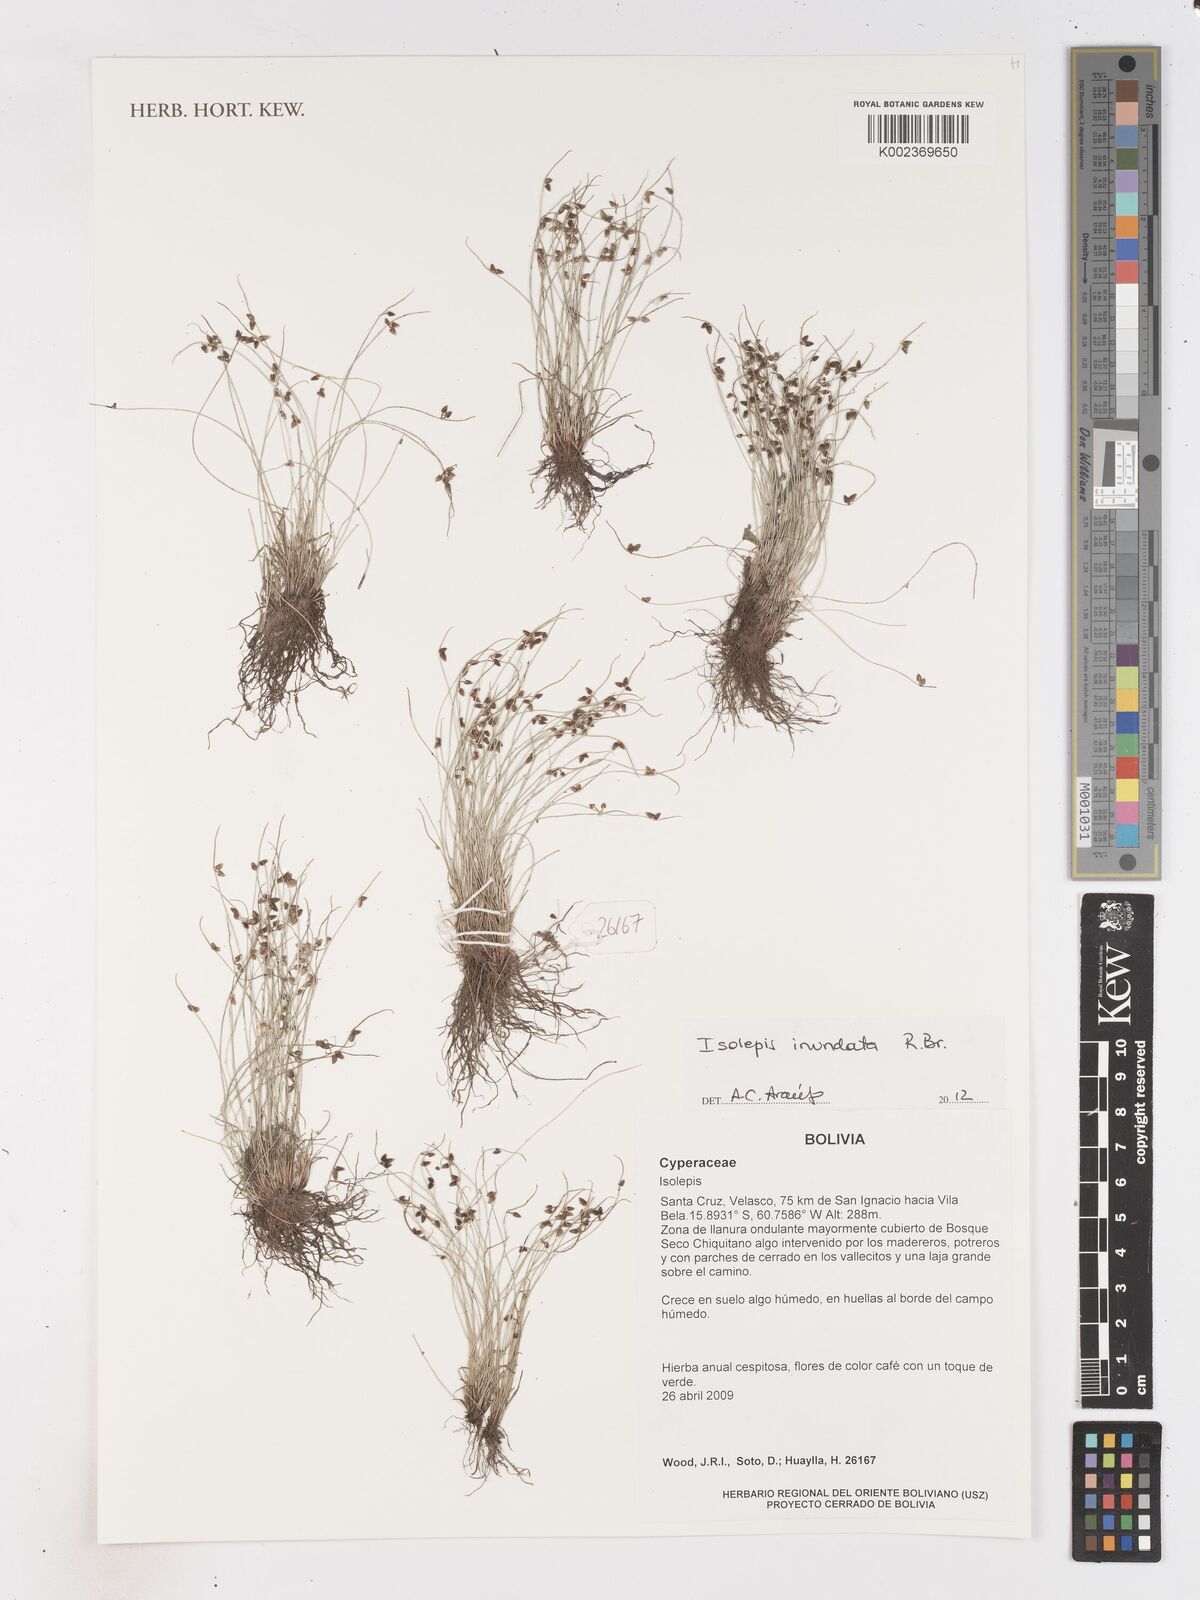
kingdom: Plantae
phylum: Tracheophyta
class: Liliopsida
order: Poales
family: Cyperaceae
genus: Isolepis
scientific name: Isolepis inundata
